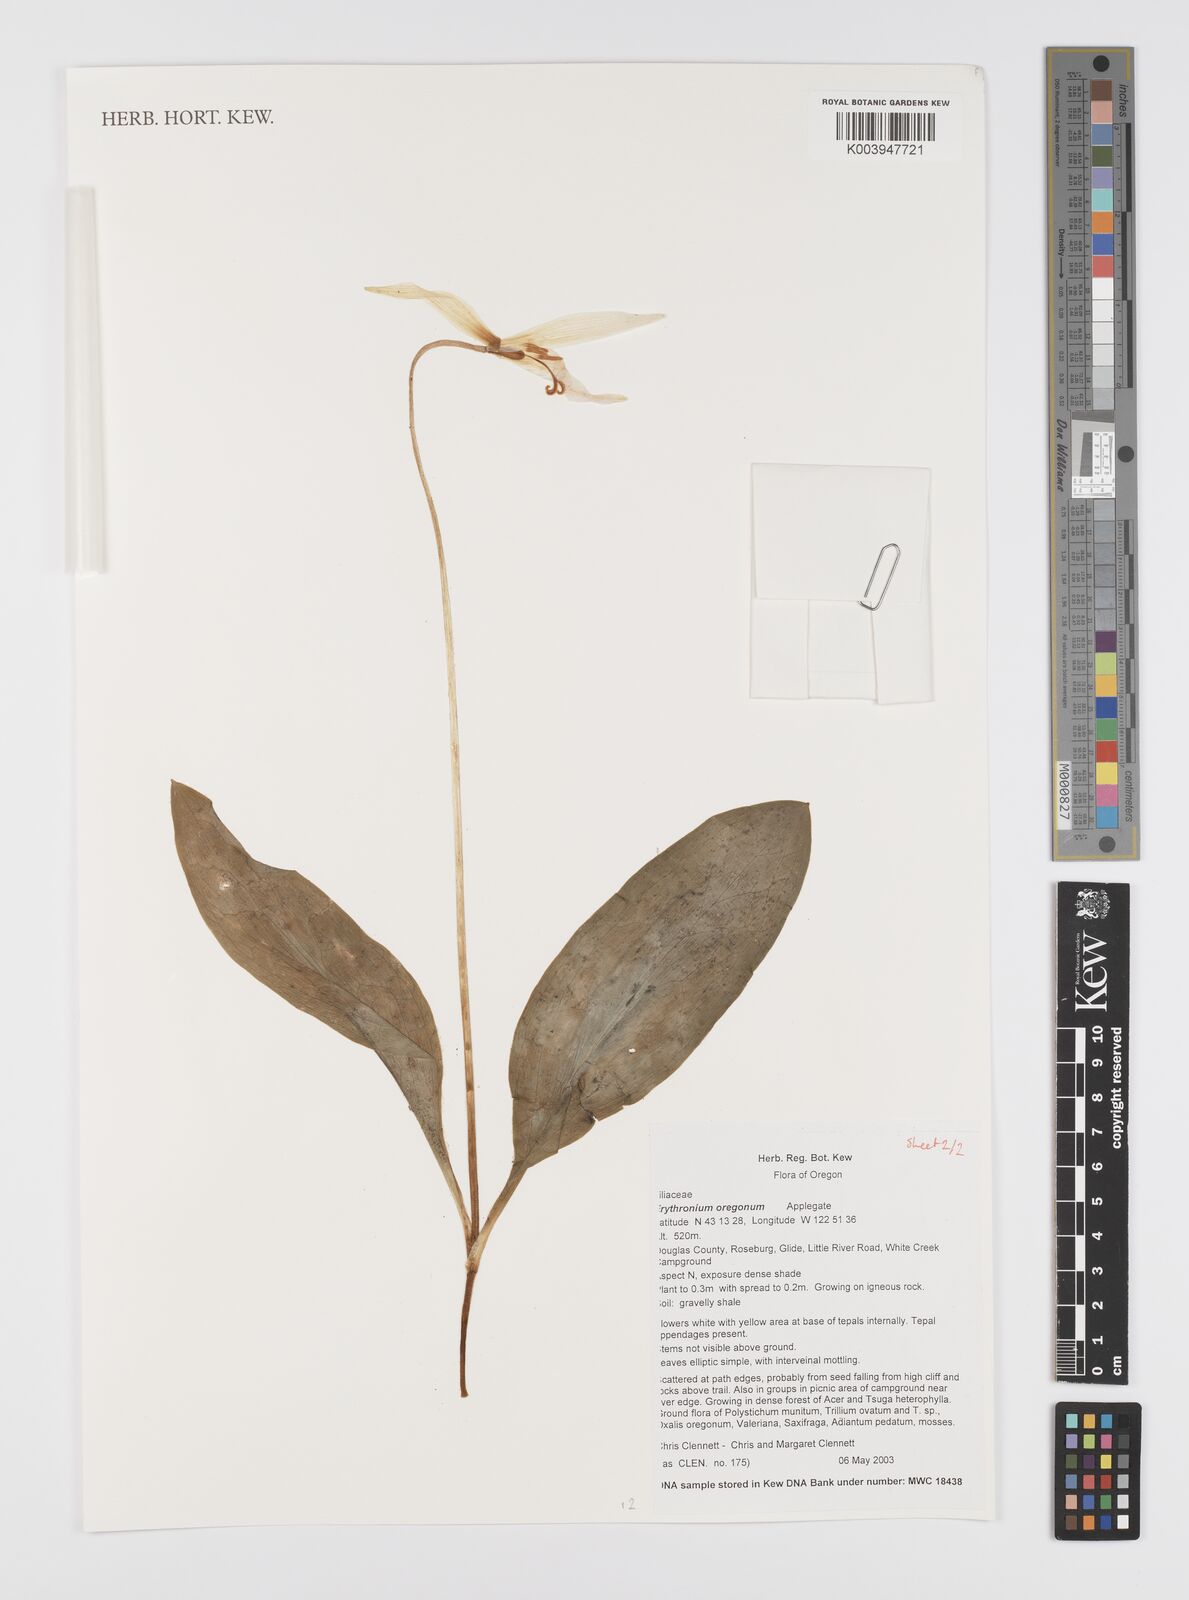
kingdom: Plantae
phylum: Tracheophyta
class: Liliopsida
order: Liliales
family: Liliaceae
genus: Erythronium
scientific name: Erythronium oregonum
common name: Giant adder's-tongue
